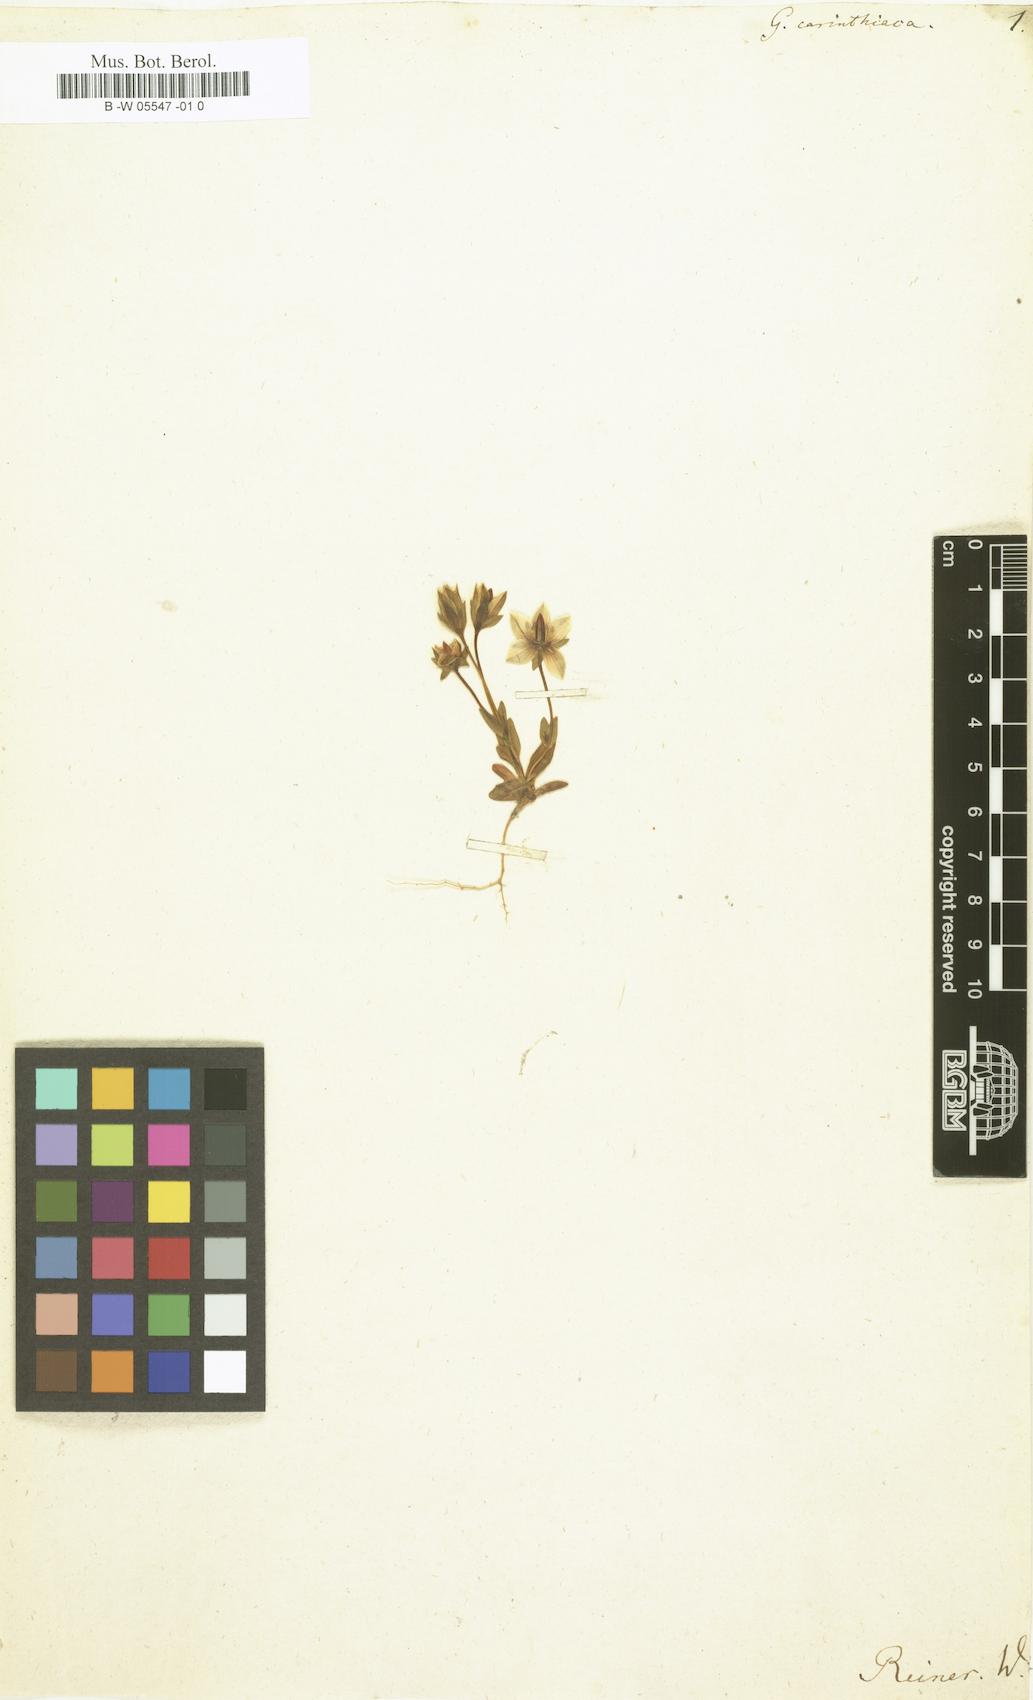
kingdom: Plantae
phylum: Tracheophyta
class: Magnoliopsida
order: Gentianales
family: Gentianaceae
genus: Lomatogonium
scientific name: Lomatogonium carinthiacum
